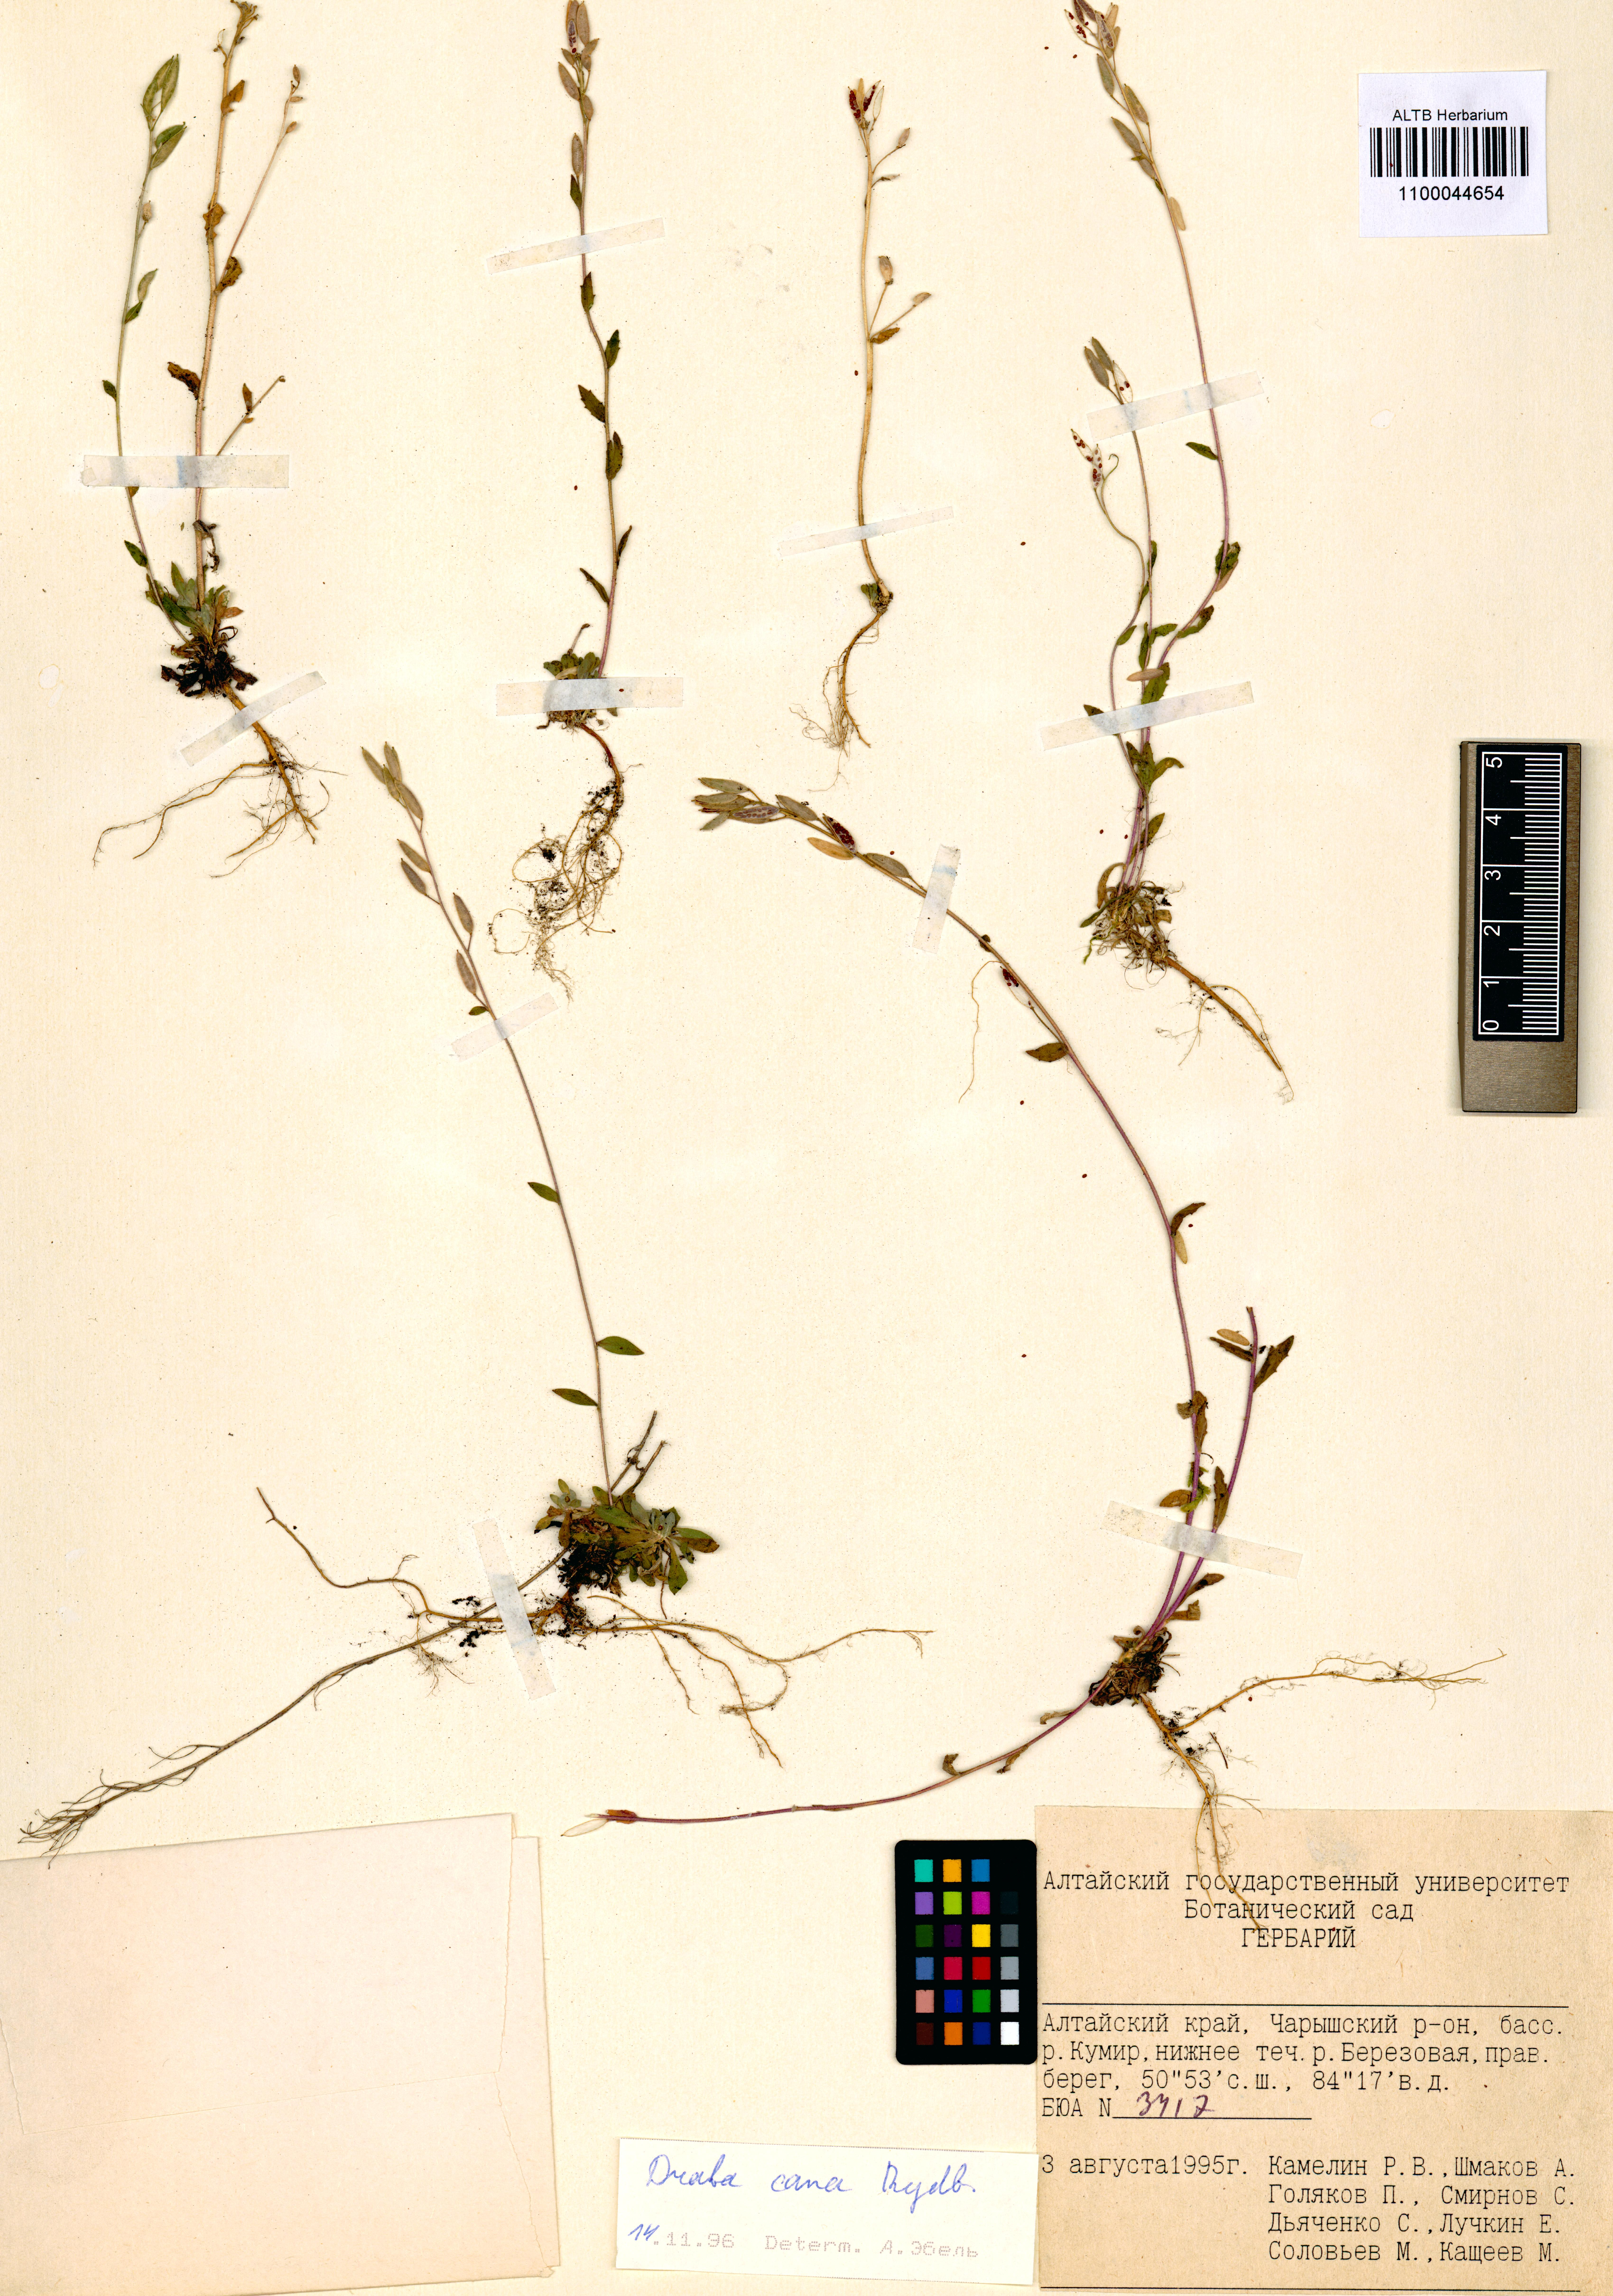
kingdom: Plantae
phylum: Tracheophyta
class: Magnoliopsida
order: Brassicales
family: Brassicaceae
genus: Draba
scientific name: Draba cana
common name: Hoary draba
